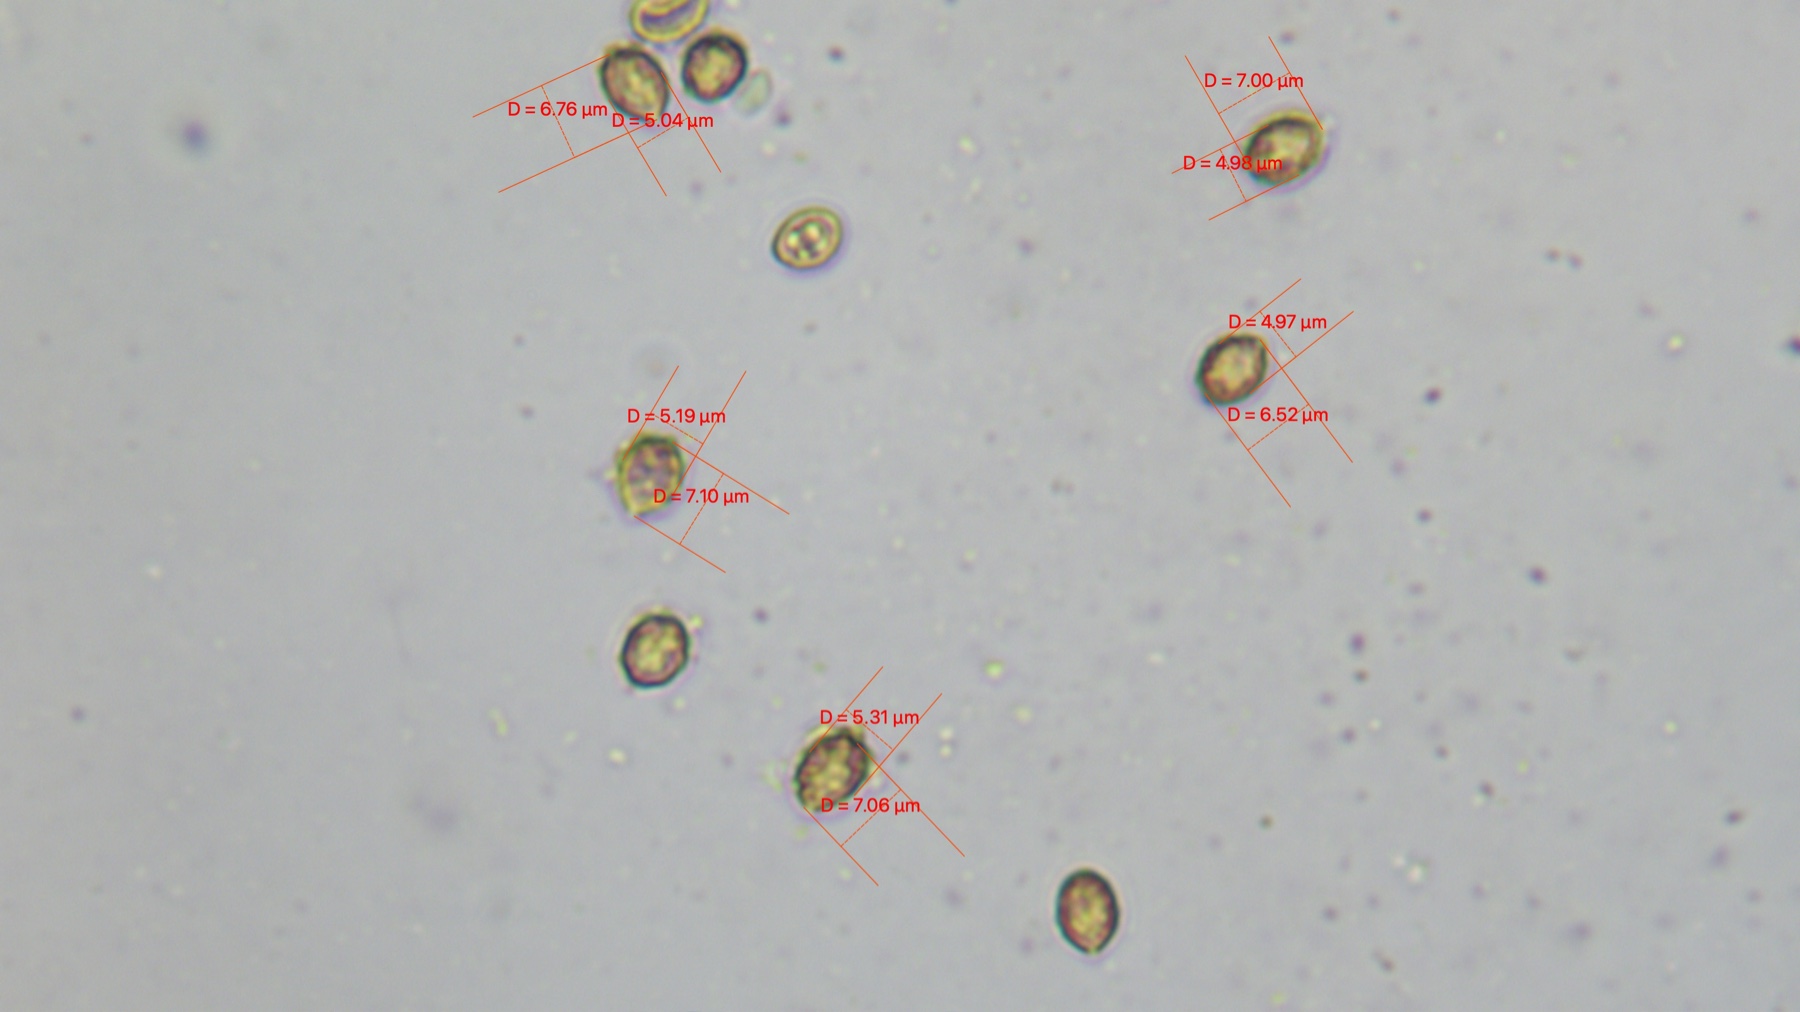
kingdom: Fungi
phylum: Basidiomycota
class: Agaricomycetes
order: Agaricales
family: Cortinariaceae
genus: Cortinarius
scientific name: Cortinarius
